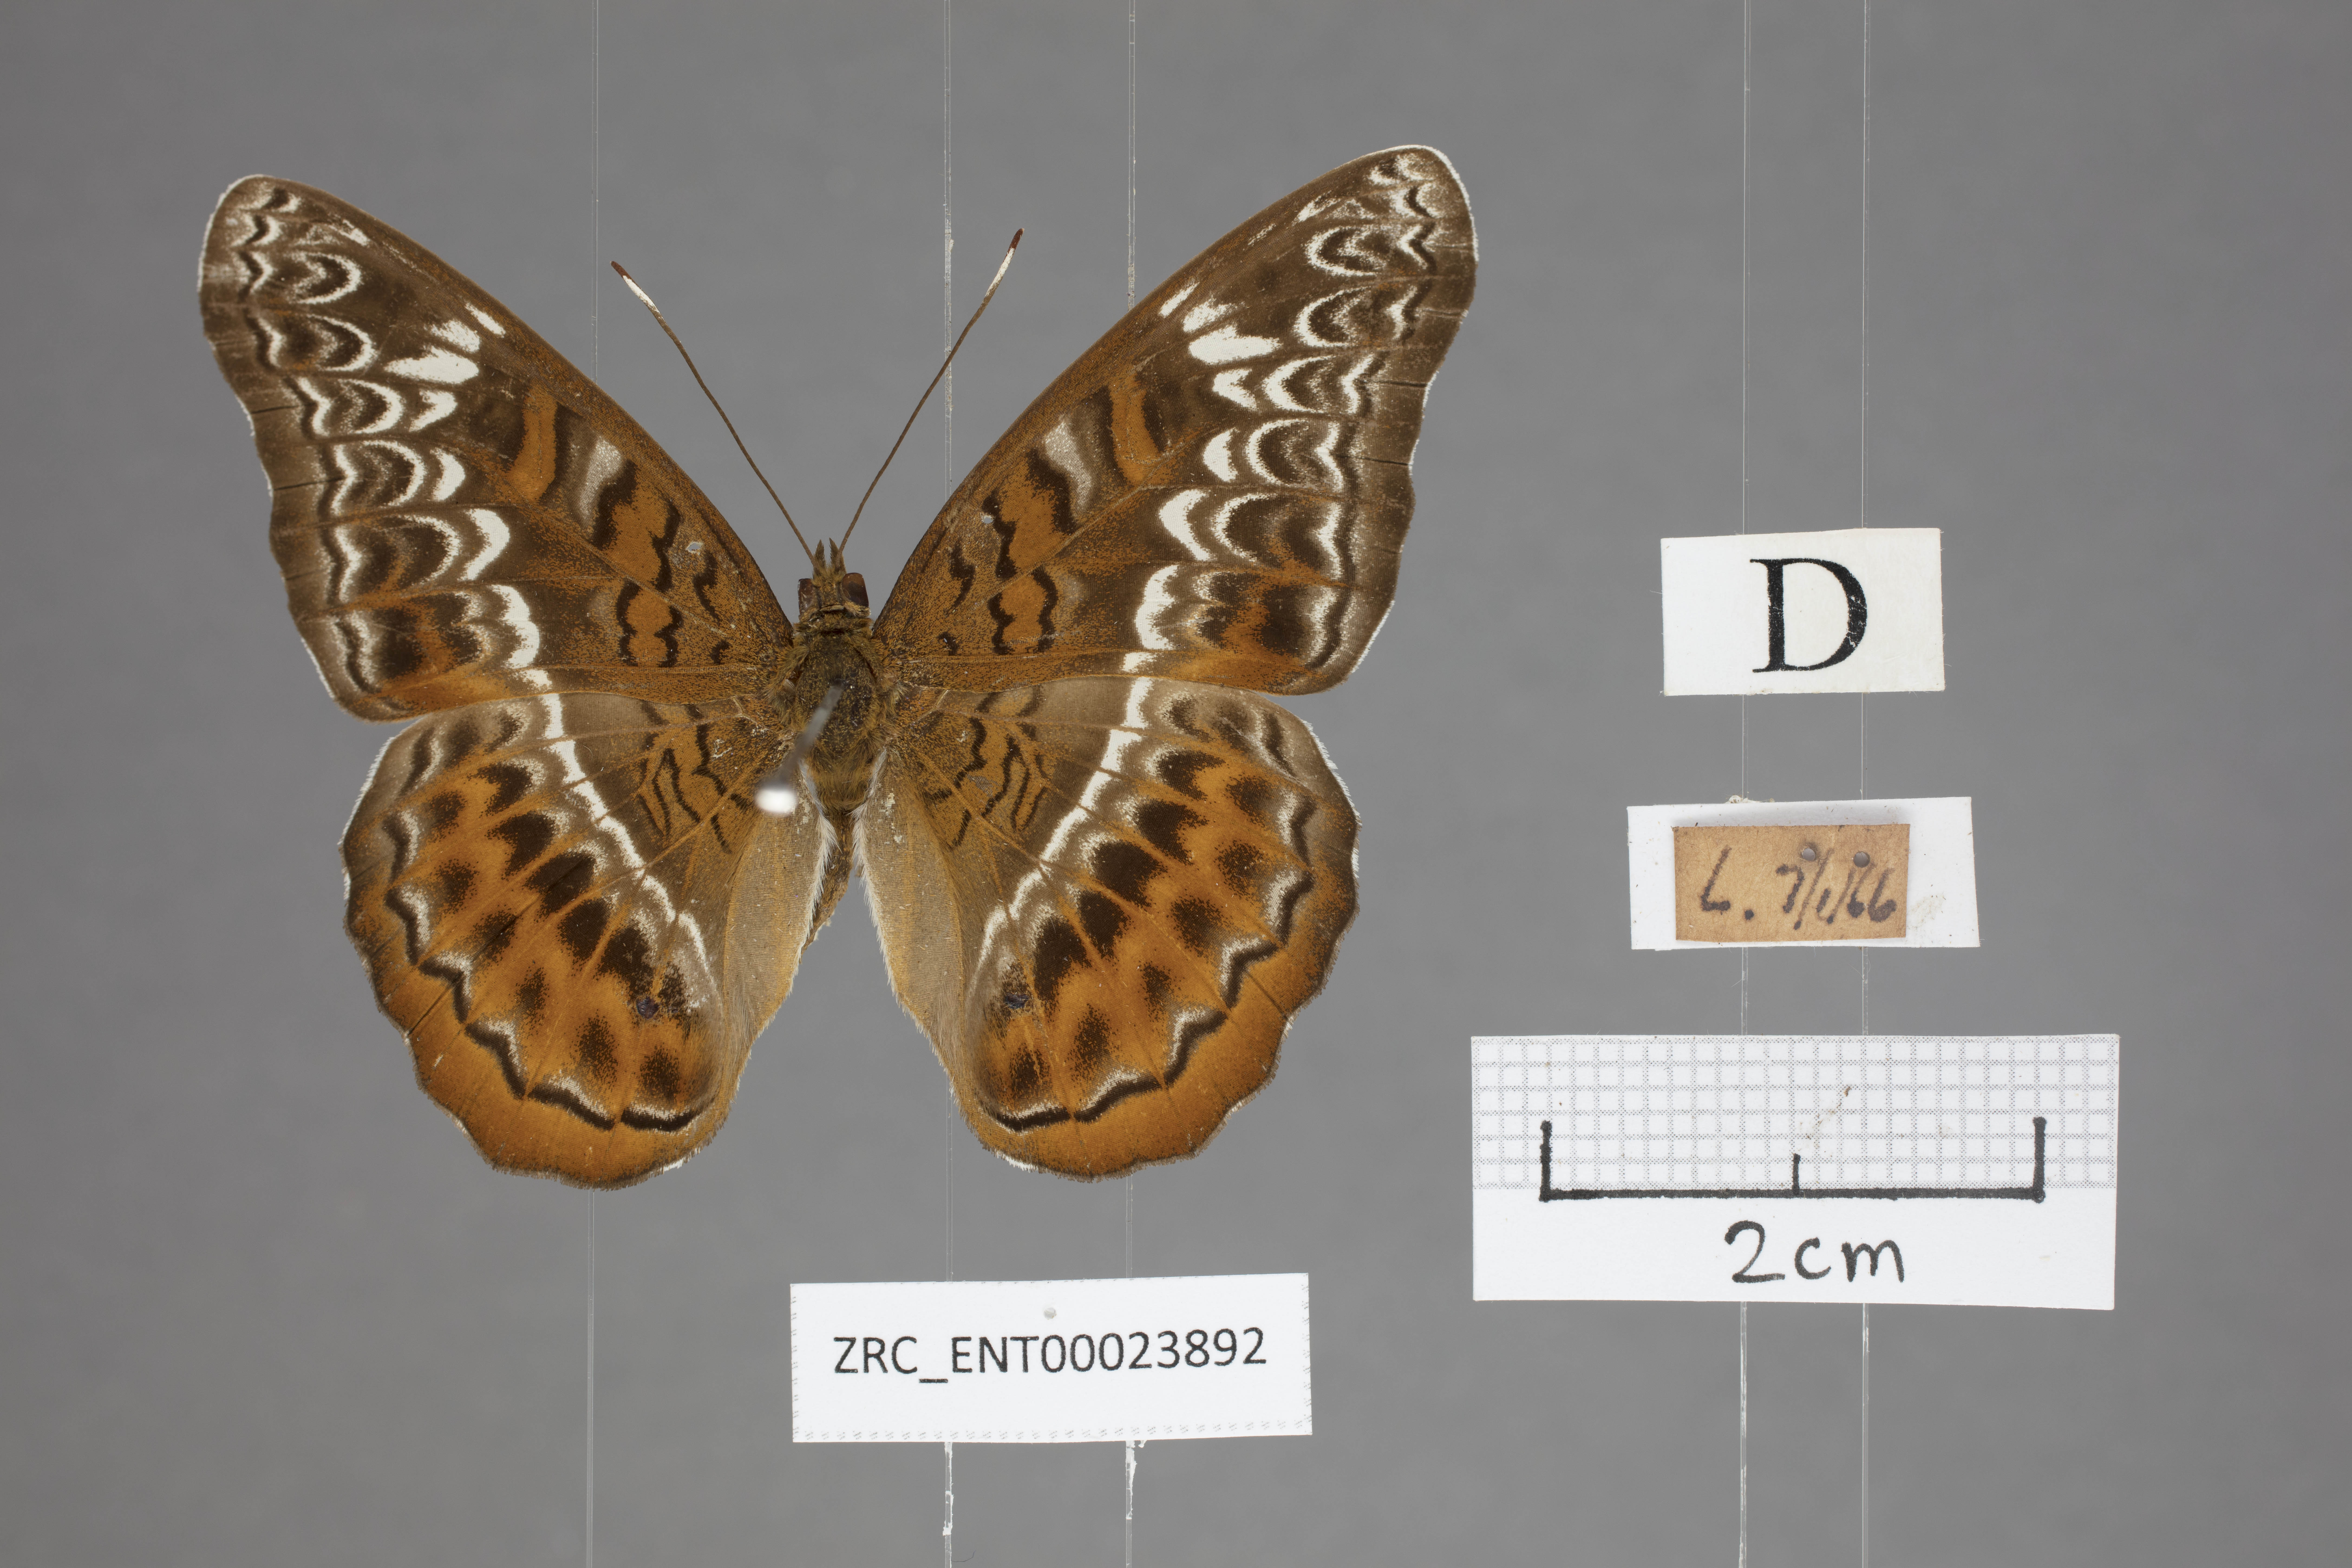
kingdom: Animalia
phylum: Arthropoda
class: Insecta
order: Lepidoptera
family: Nymphalidae
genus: Lebadea
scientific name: Lebadea martha
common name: Knight
